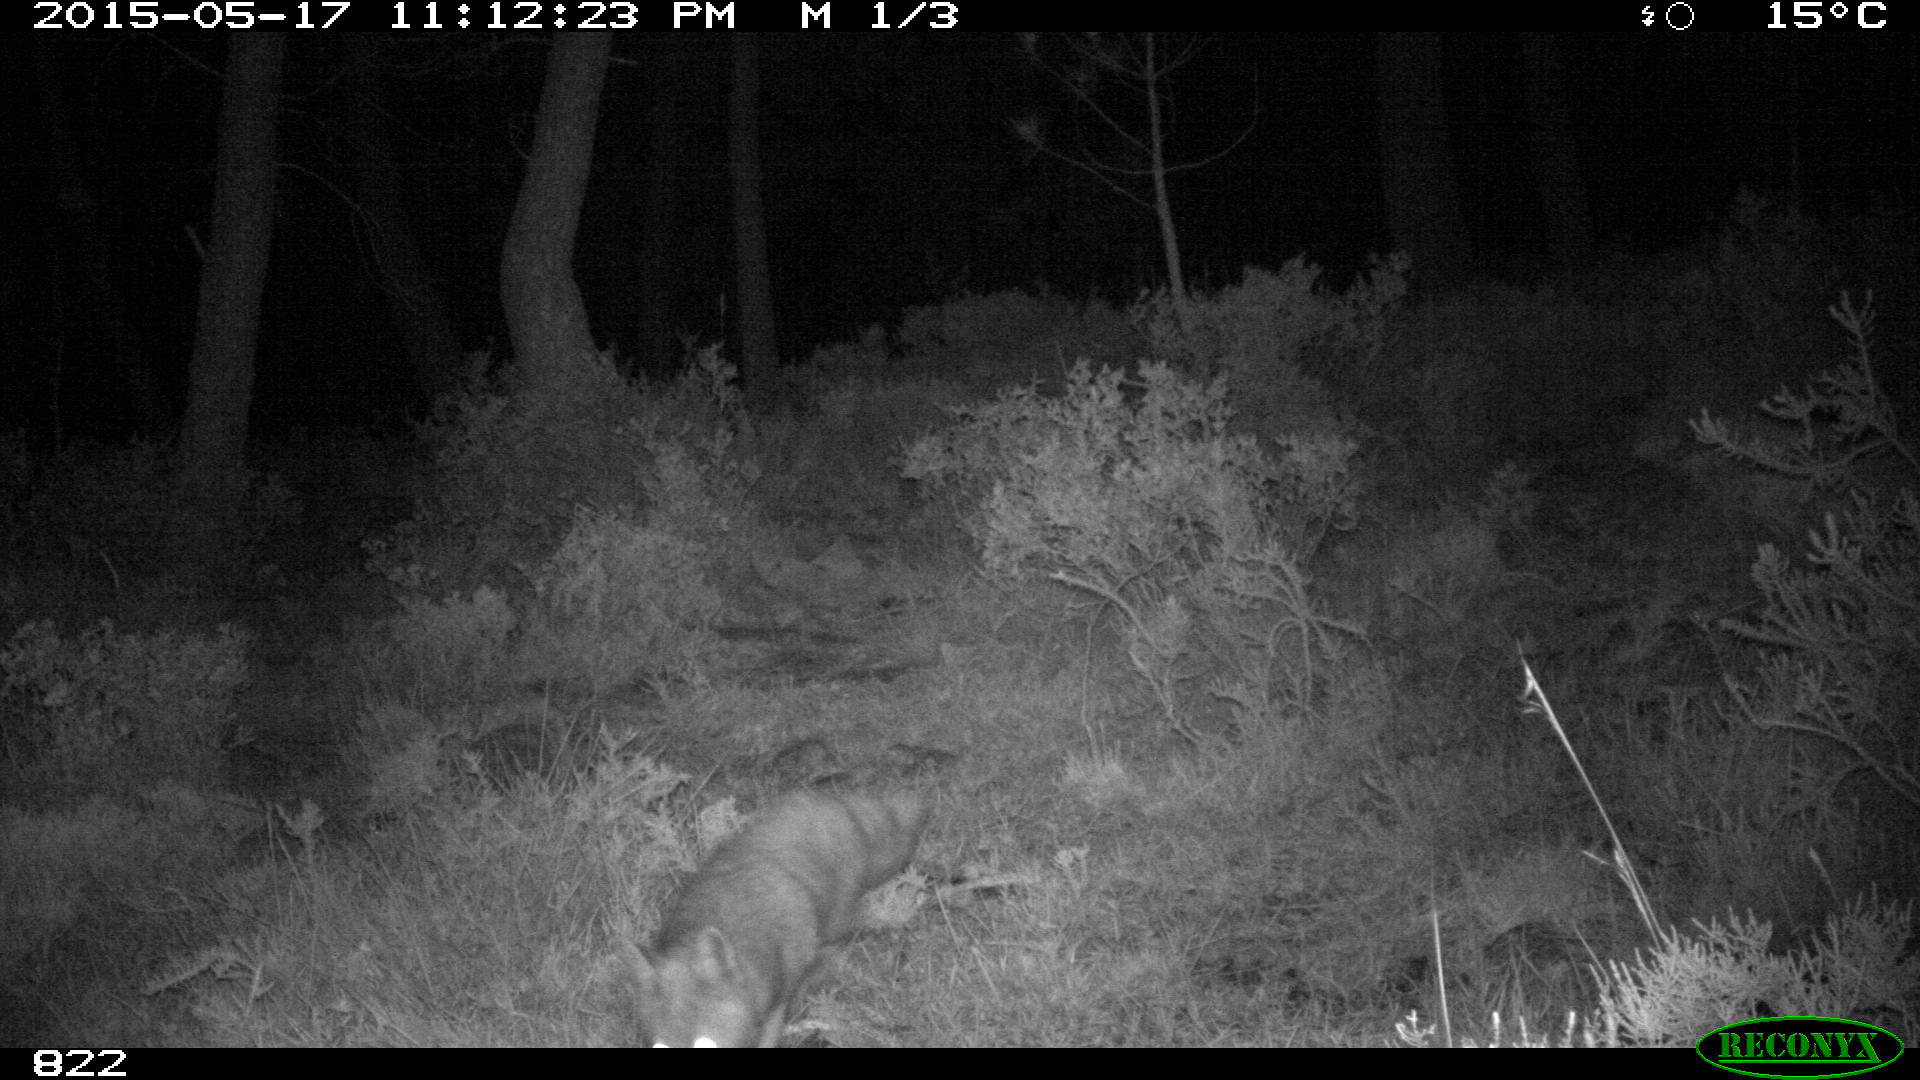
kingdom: Animalia
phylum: Chordata
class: Mammalia
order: Carnivora
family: Canidae
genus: Vulpes
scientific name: Vulpes vulpes
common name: Red fox
